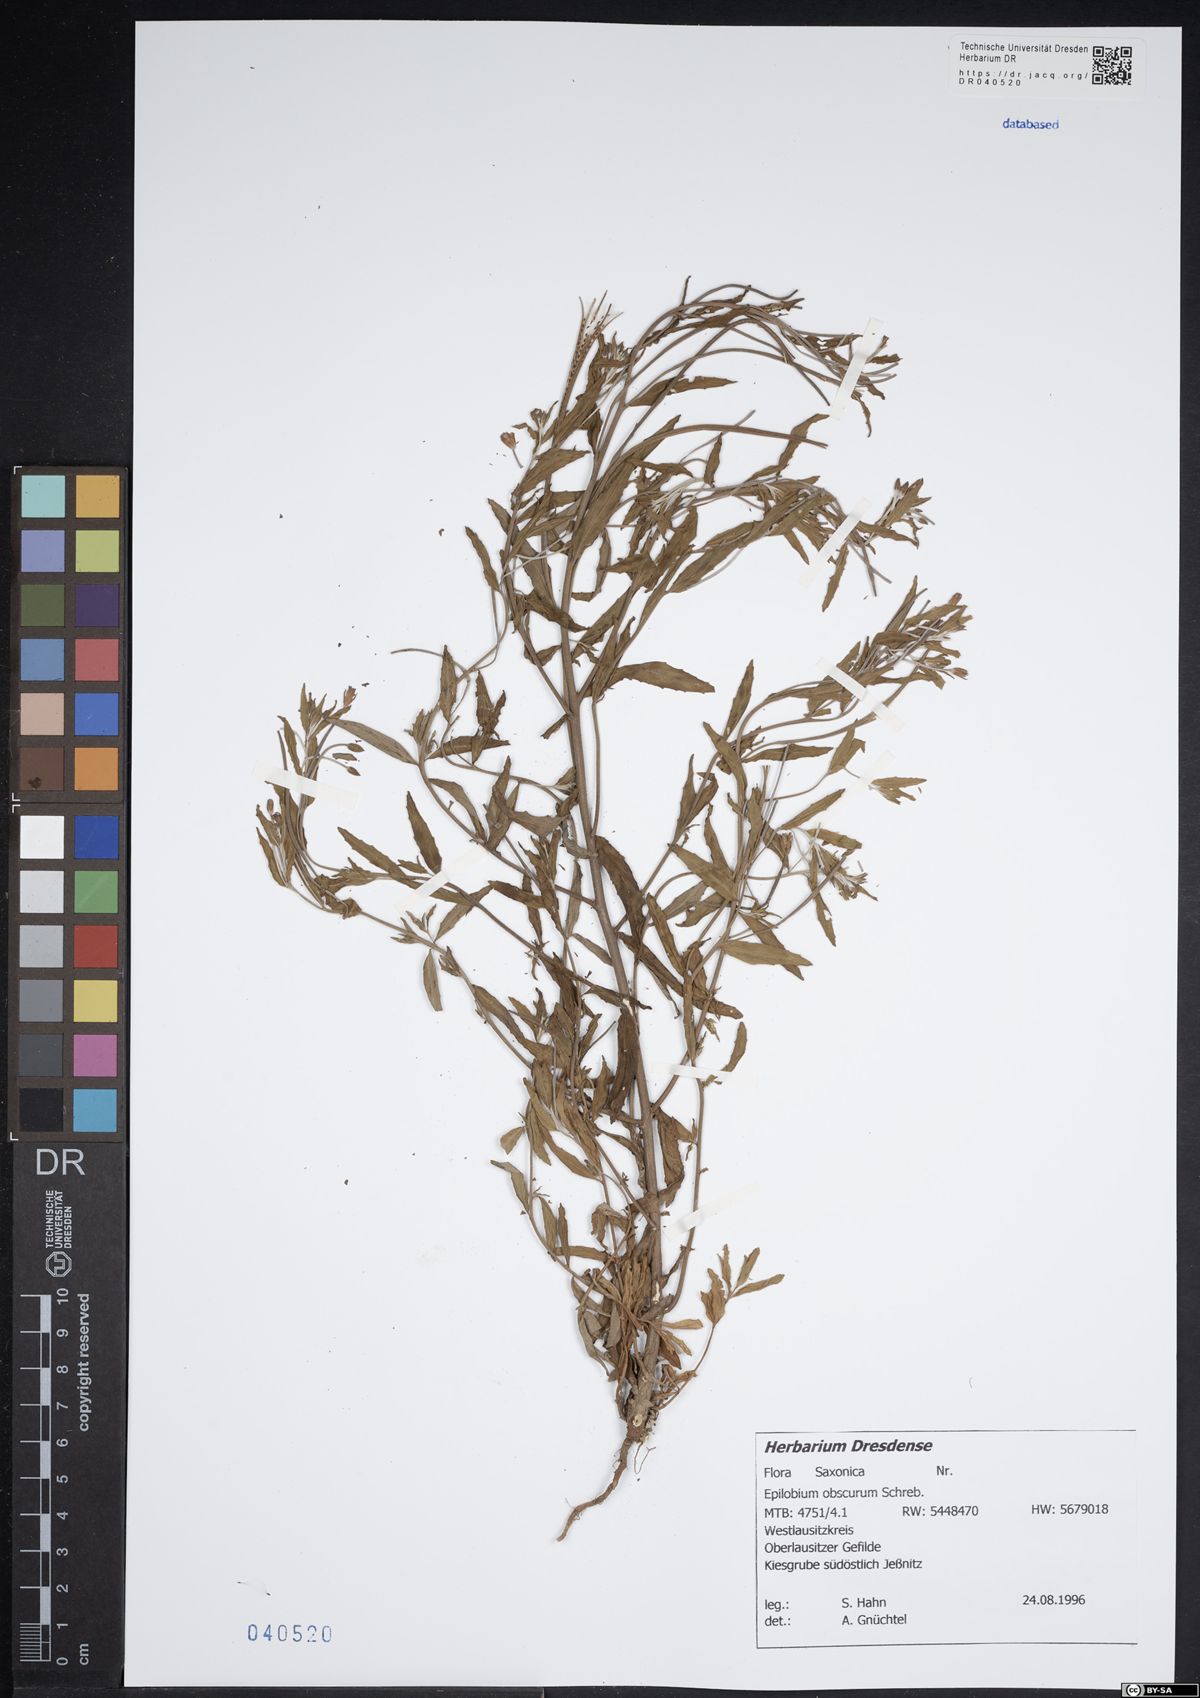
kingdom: Plantae
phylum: Tracheophyta
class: Magnoliopsida
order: Myrtales
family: Onagraceae
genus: Epilobium
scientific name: Epilobium obscurum
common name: Short-fruited willowherb
